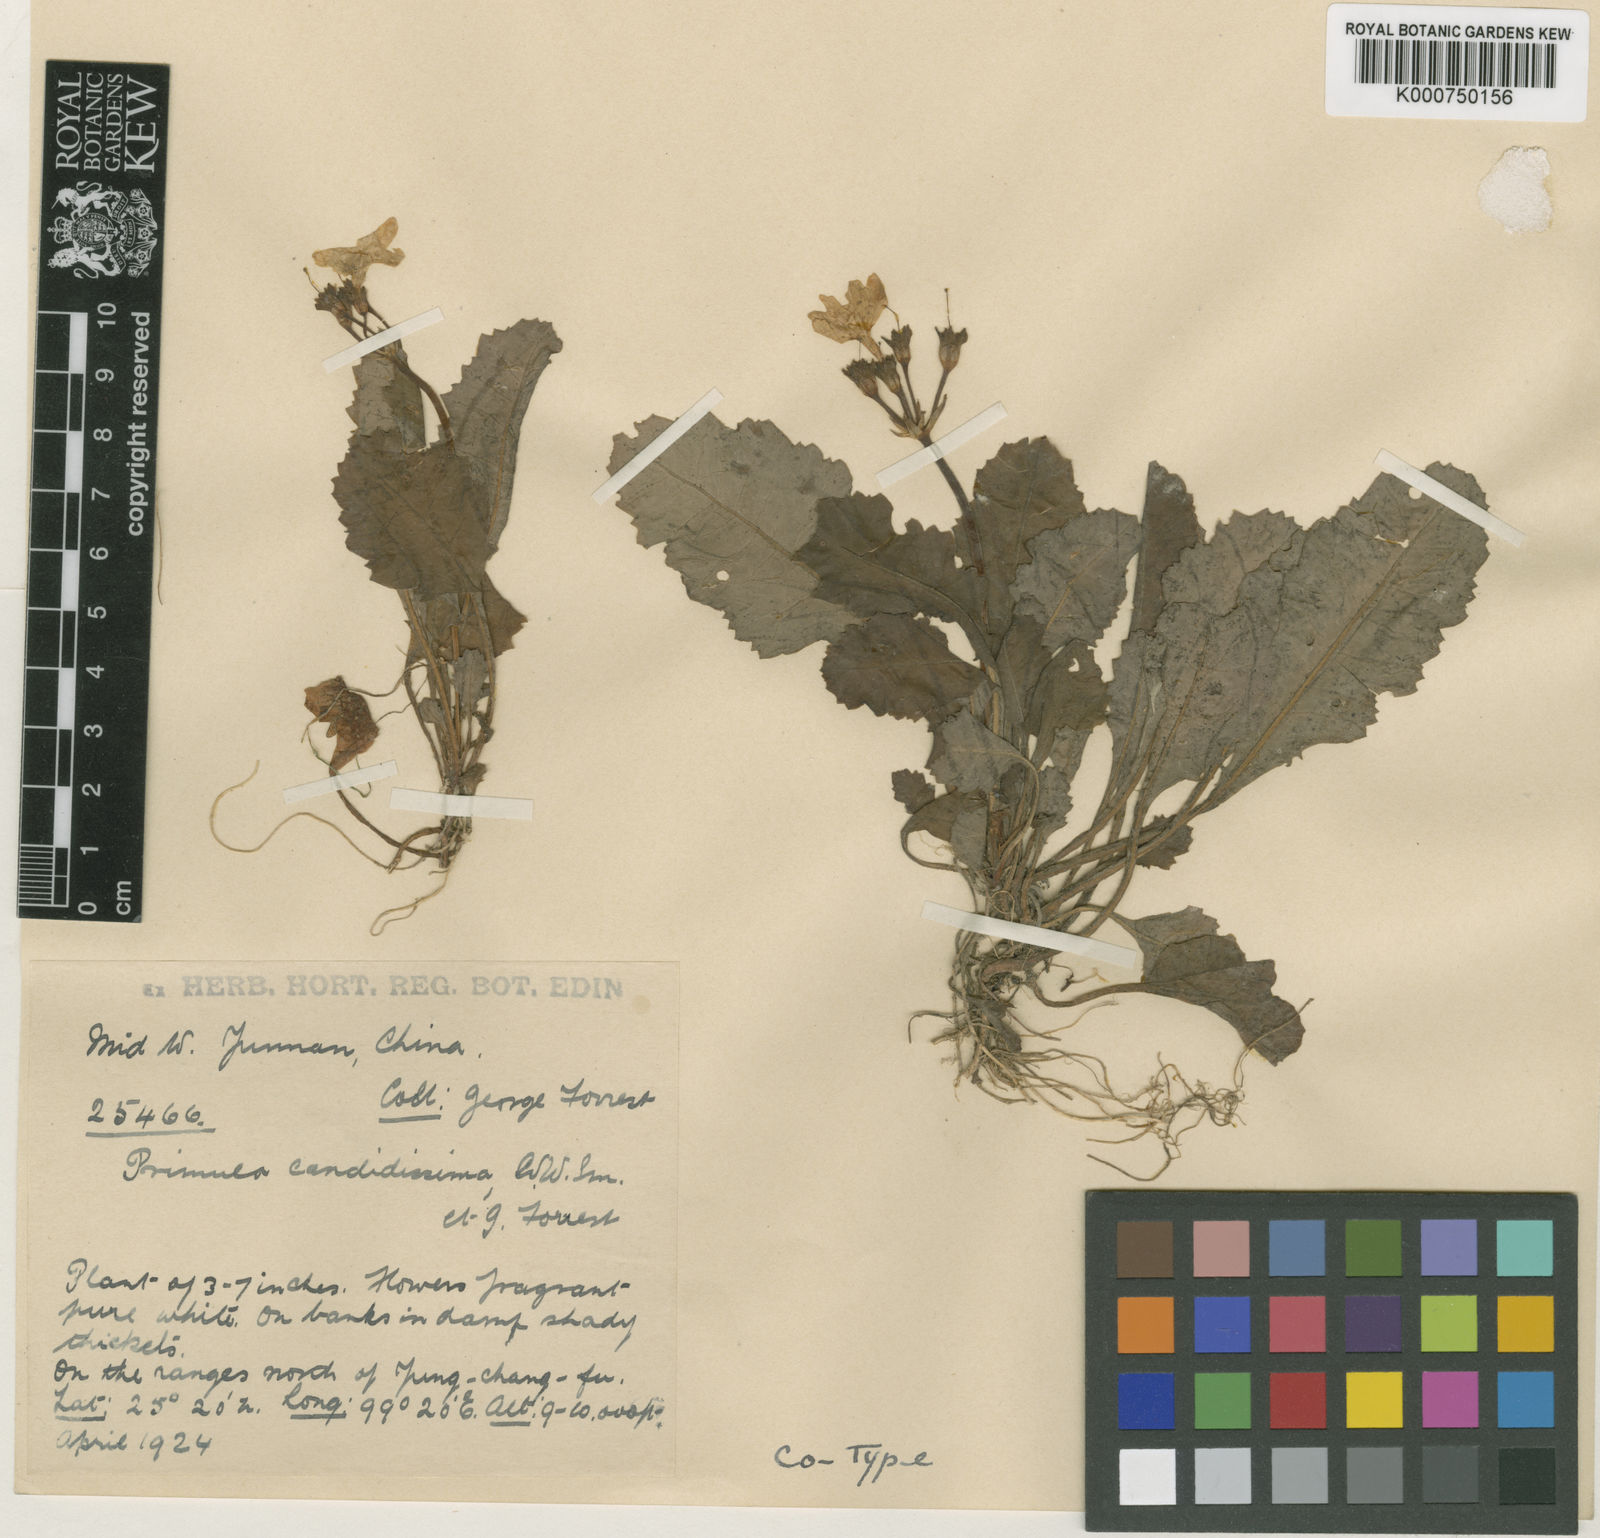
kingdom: Plantae
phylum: Tracheophyta
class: Magnoliopsida
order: Ericales
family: Primulaceae
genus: Primula
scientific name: Primula sinuata
